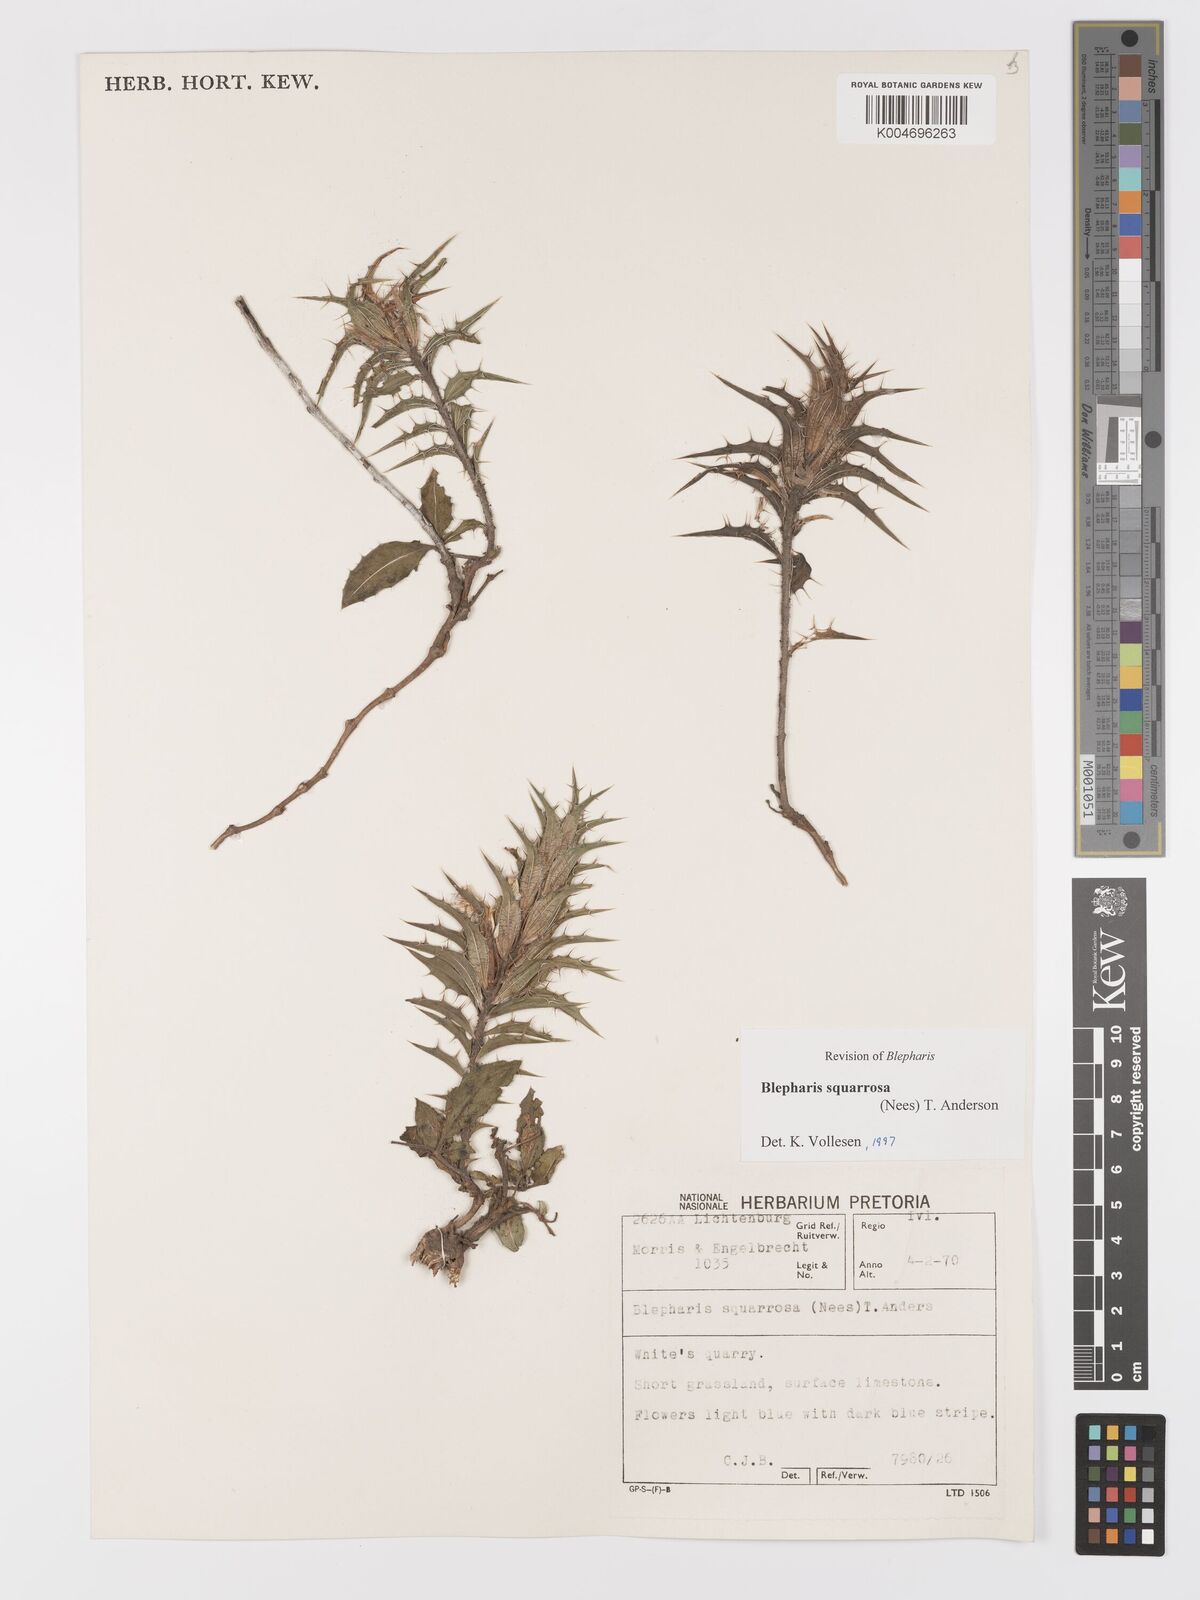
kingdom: Plantae
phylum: Tracheophyta
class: Magnoliopsida
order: Lamiales
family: Acanthaceae
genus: Blepharis
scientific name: Blepharis squarrosa
